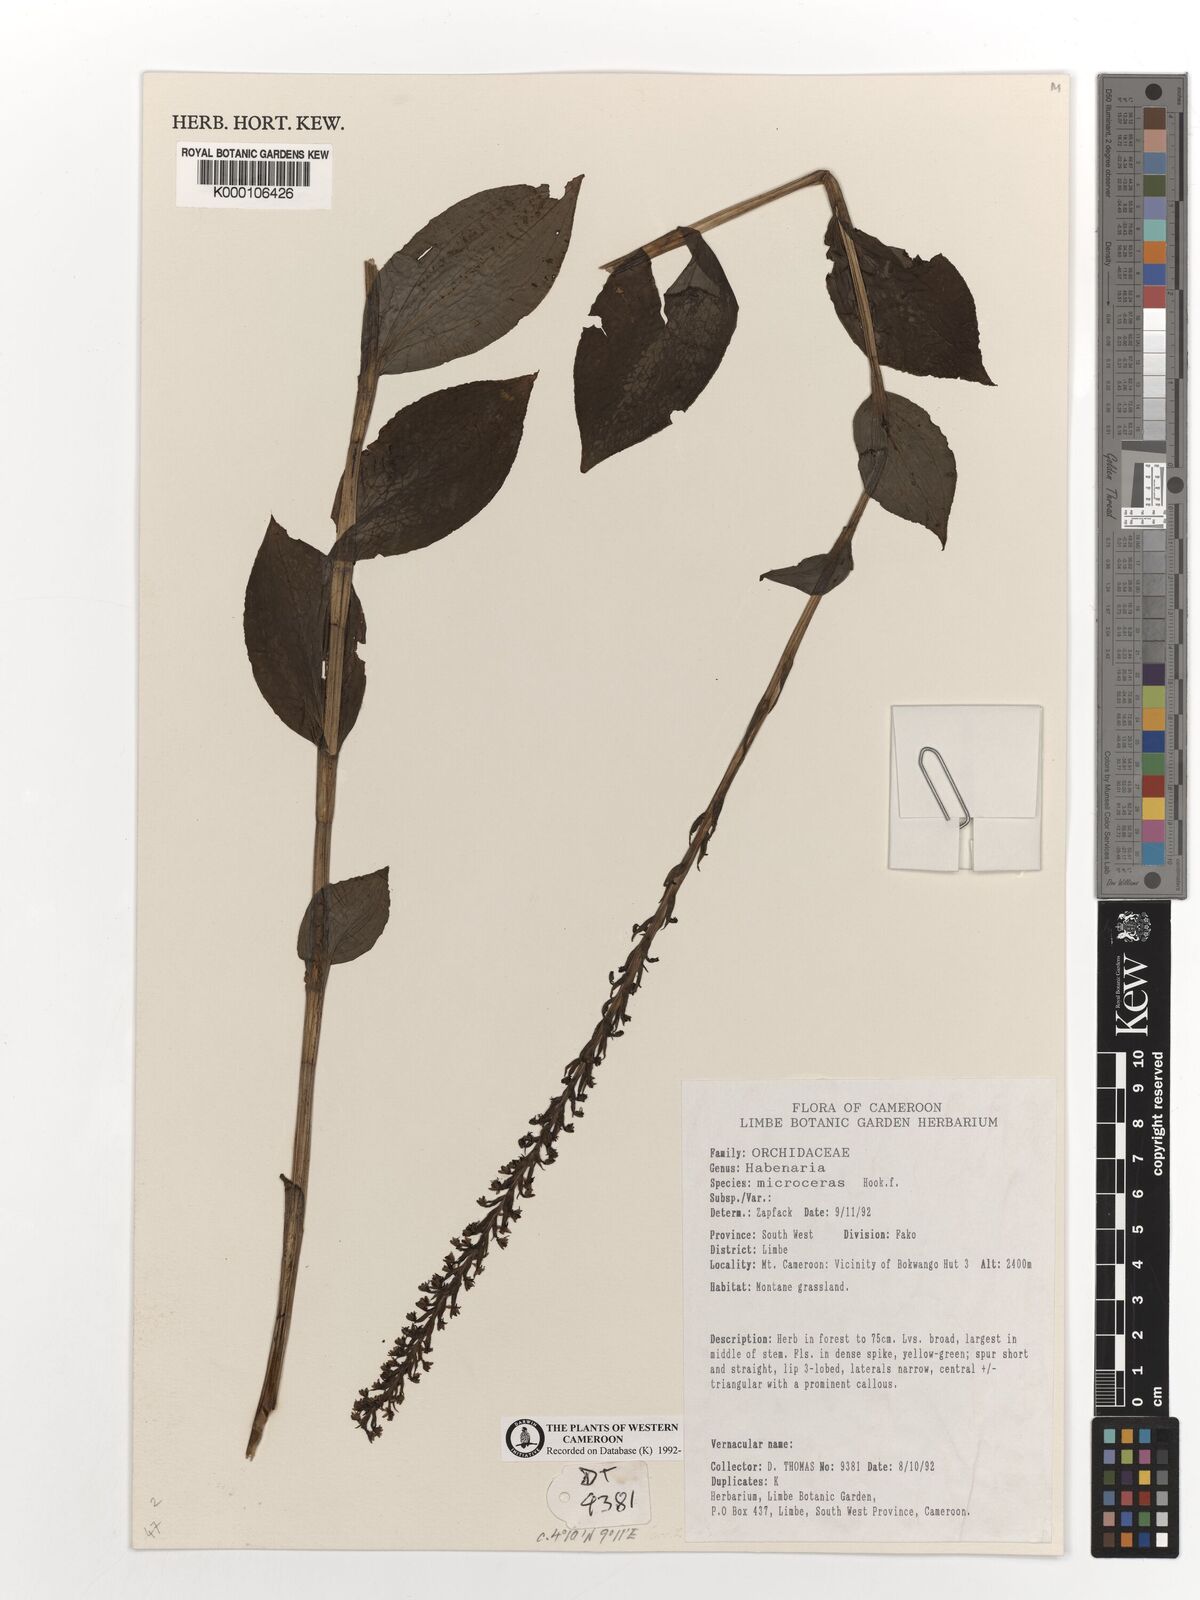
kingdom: Plantae
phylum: Tracheophyta
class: Liliopsida
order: Asparagales
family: Orchidaceae
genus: Habenaria
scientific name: Habenaria microceras
